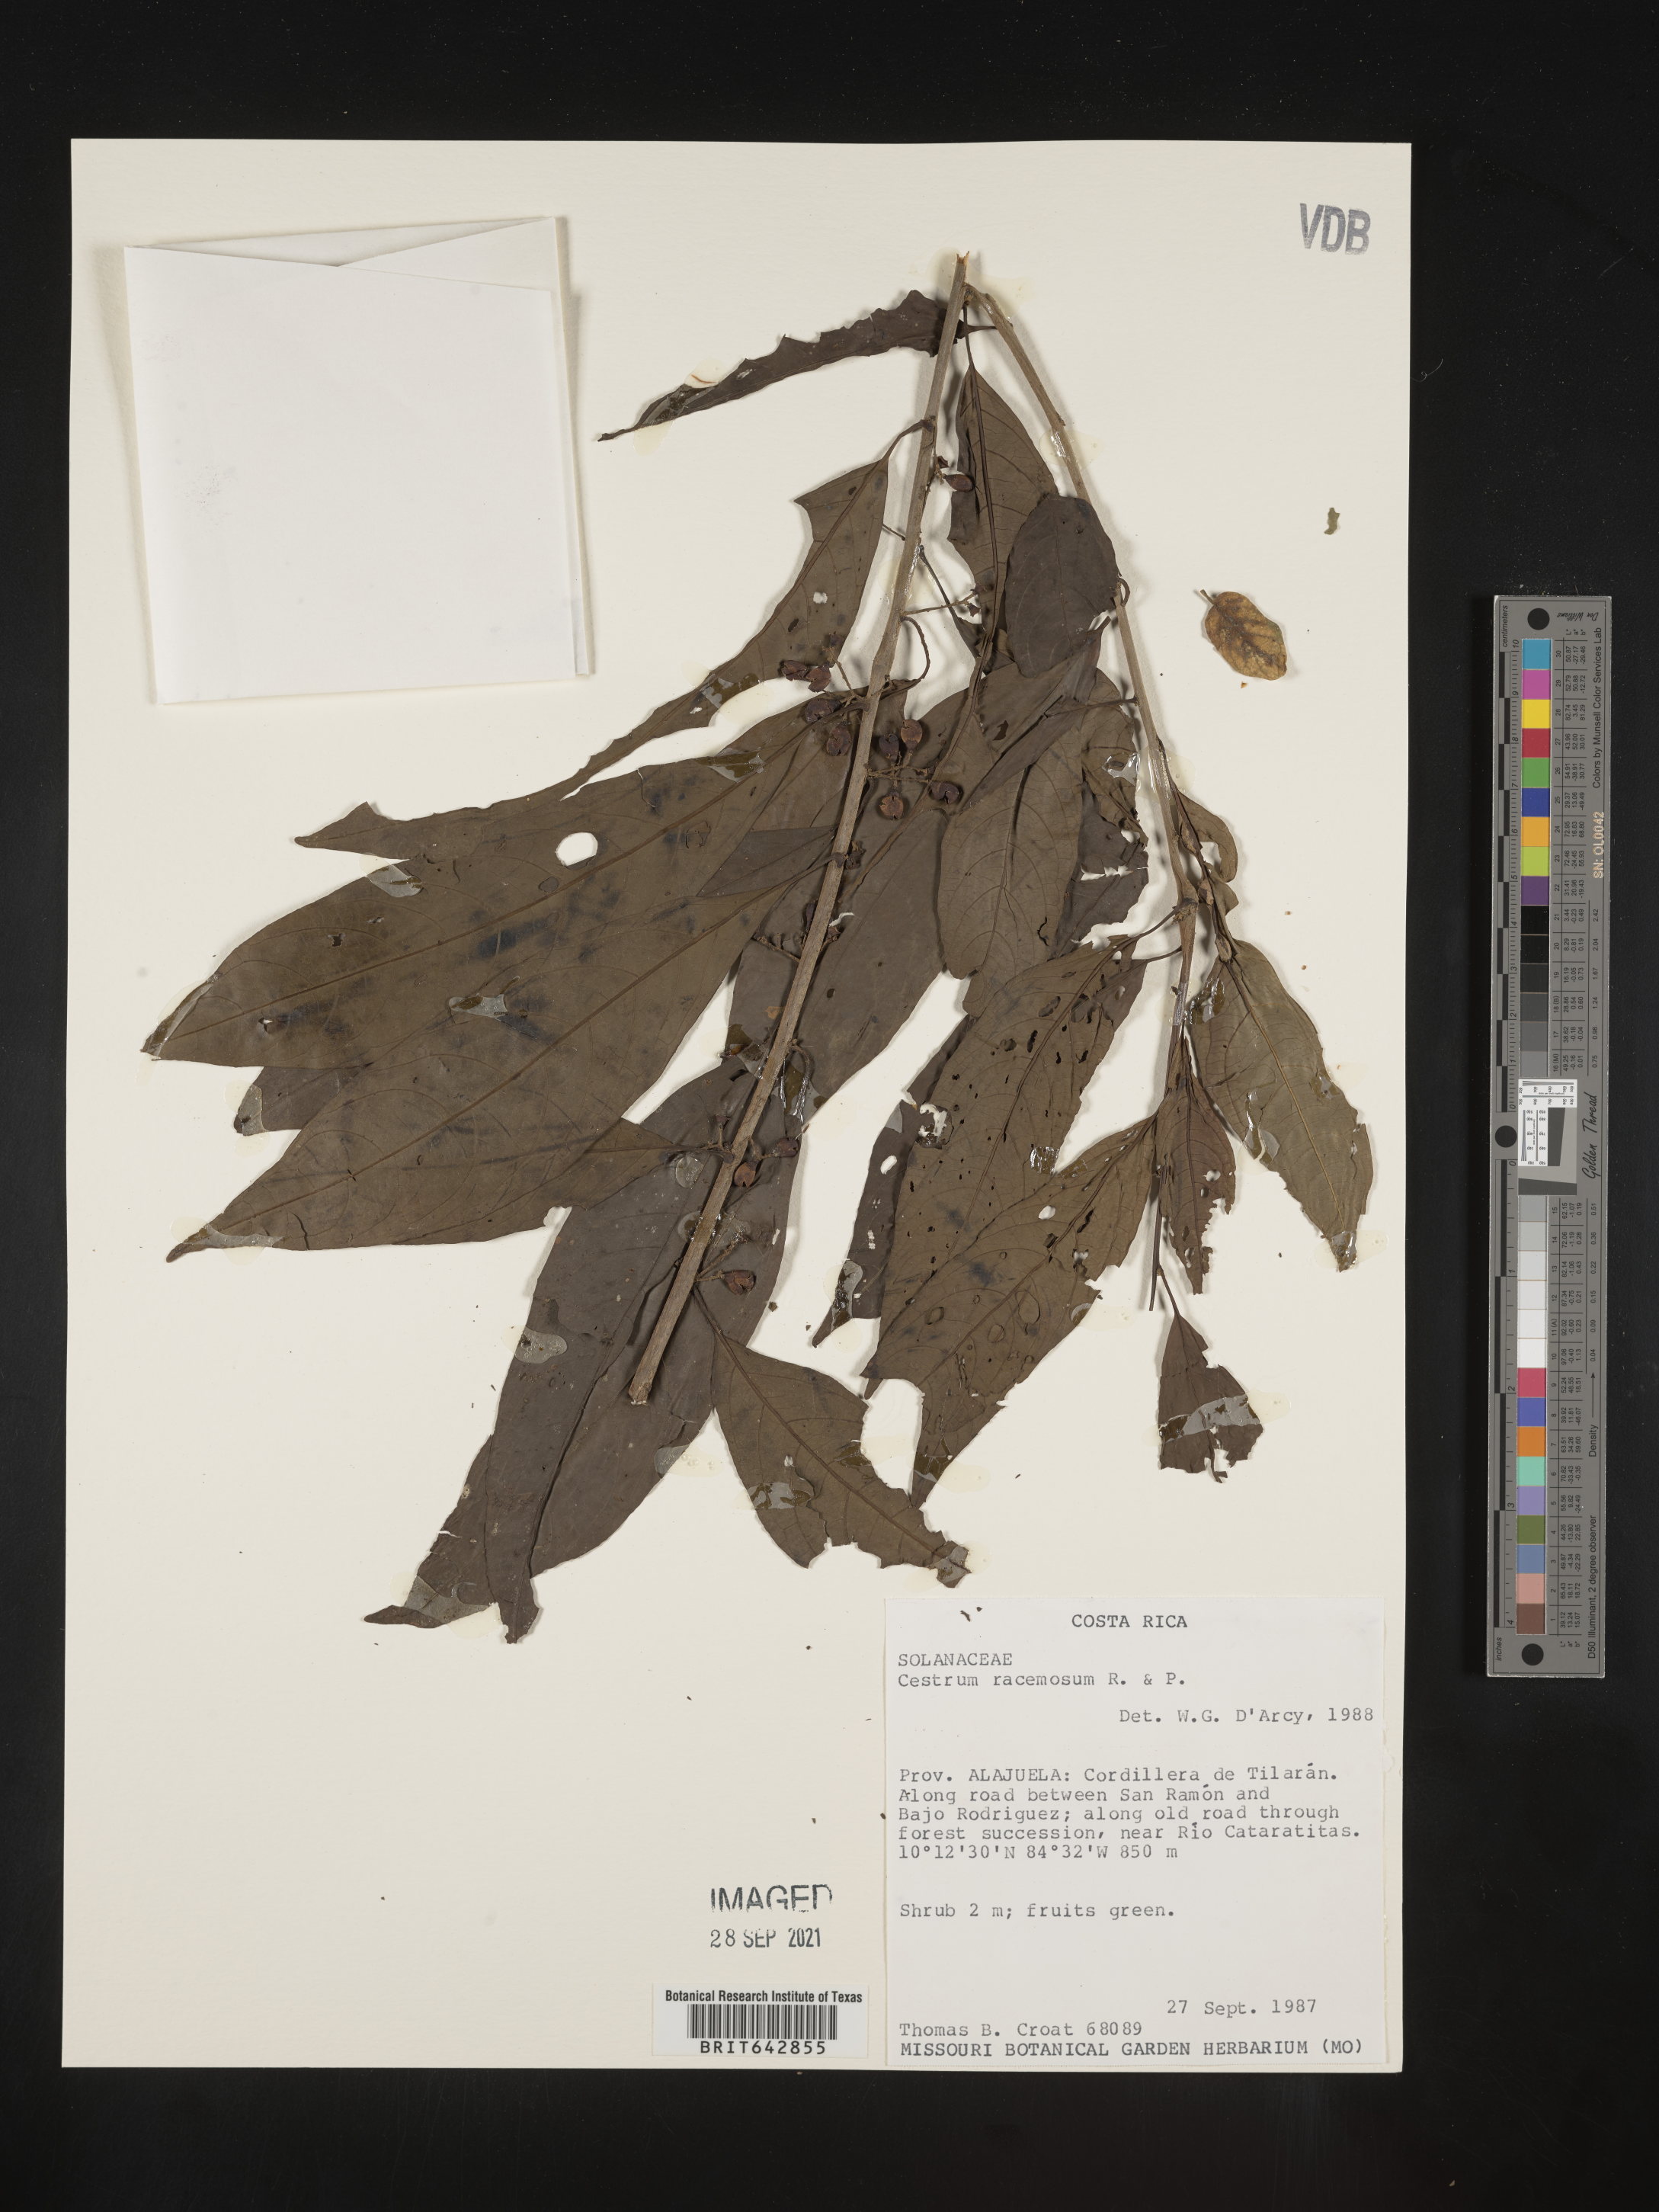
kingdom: Plantae
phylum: Tracheophyta
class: Magnoliopsida
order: Solanales
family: Solanaceae
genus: Cestrum
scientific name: Cestrum
